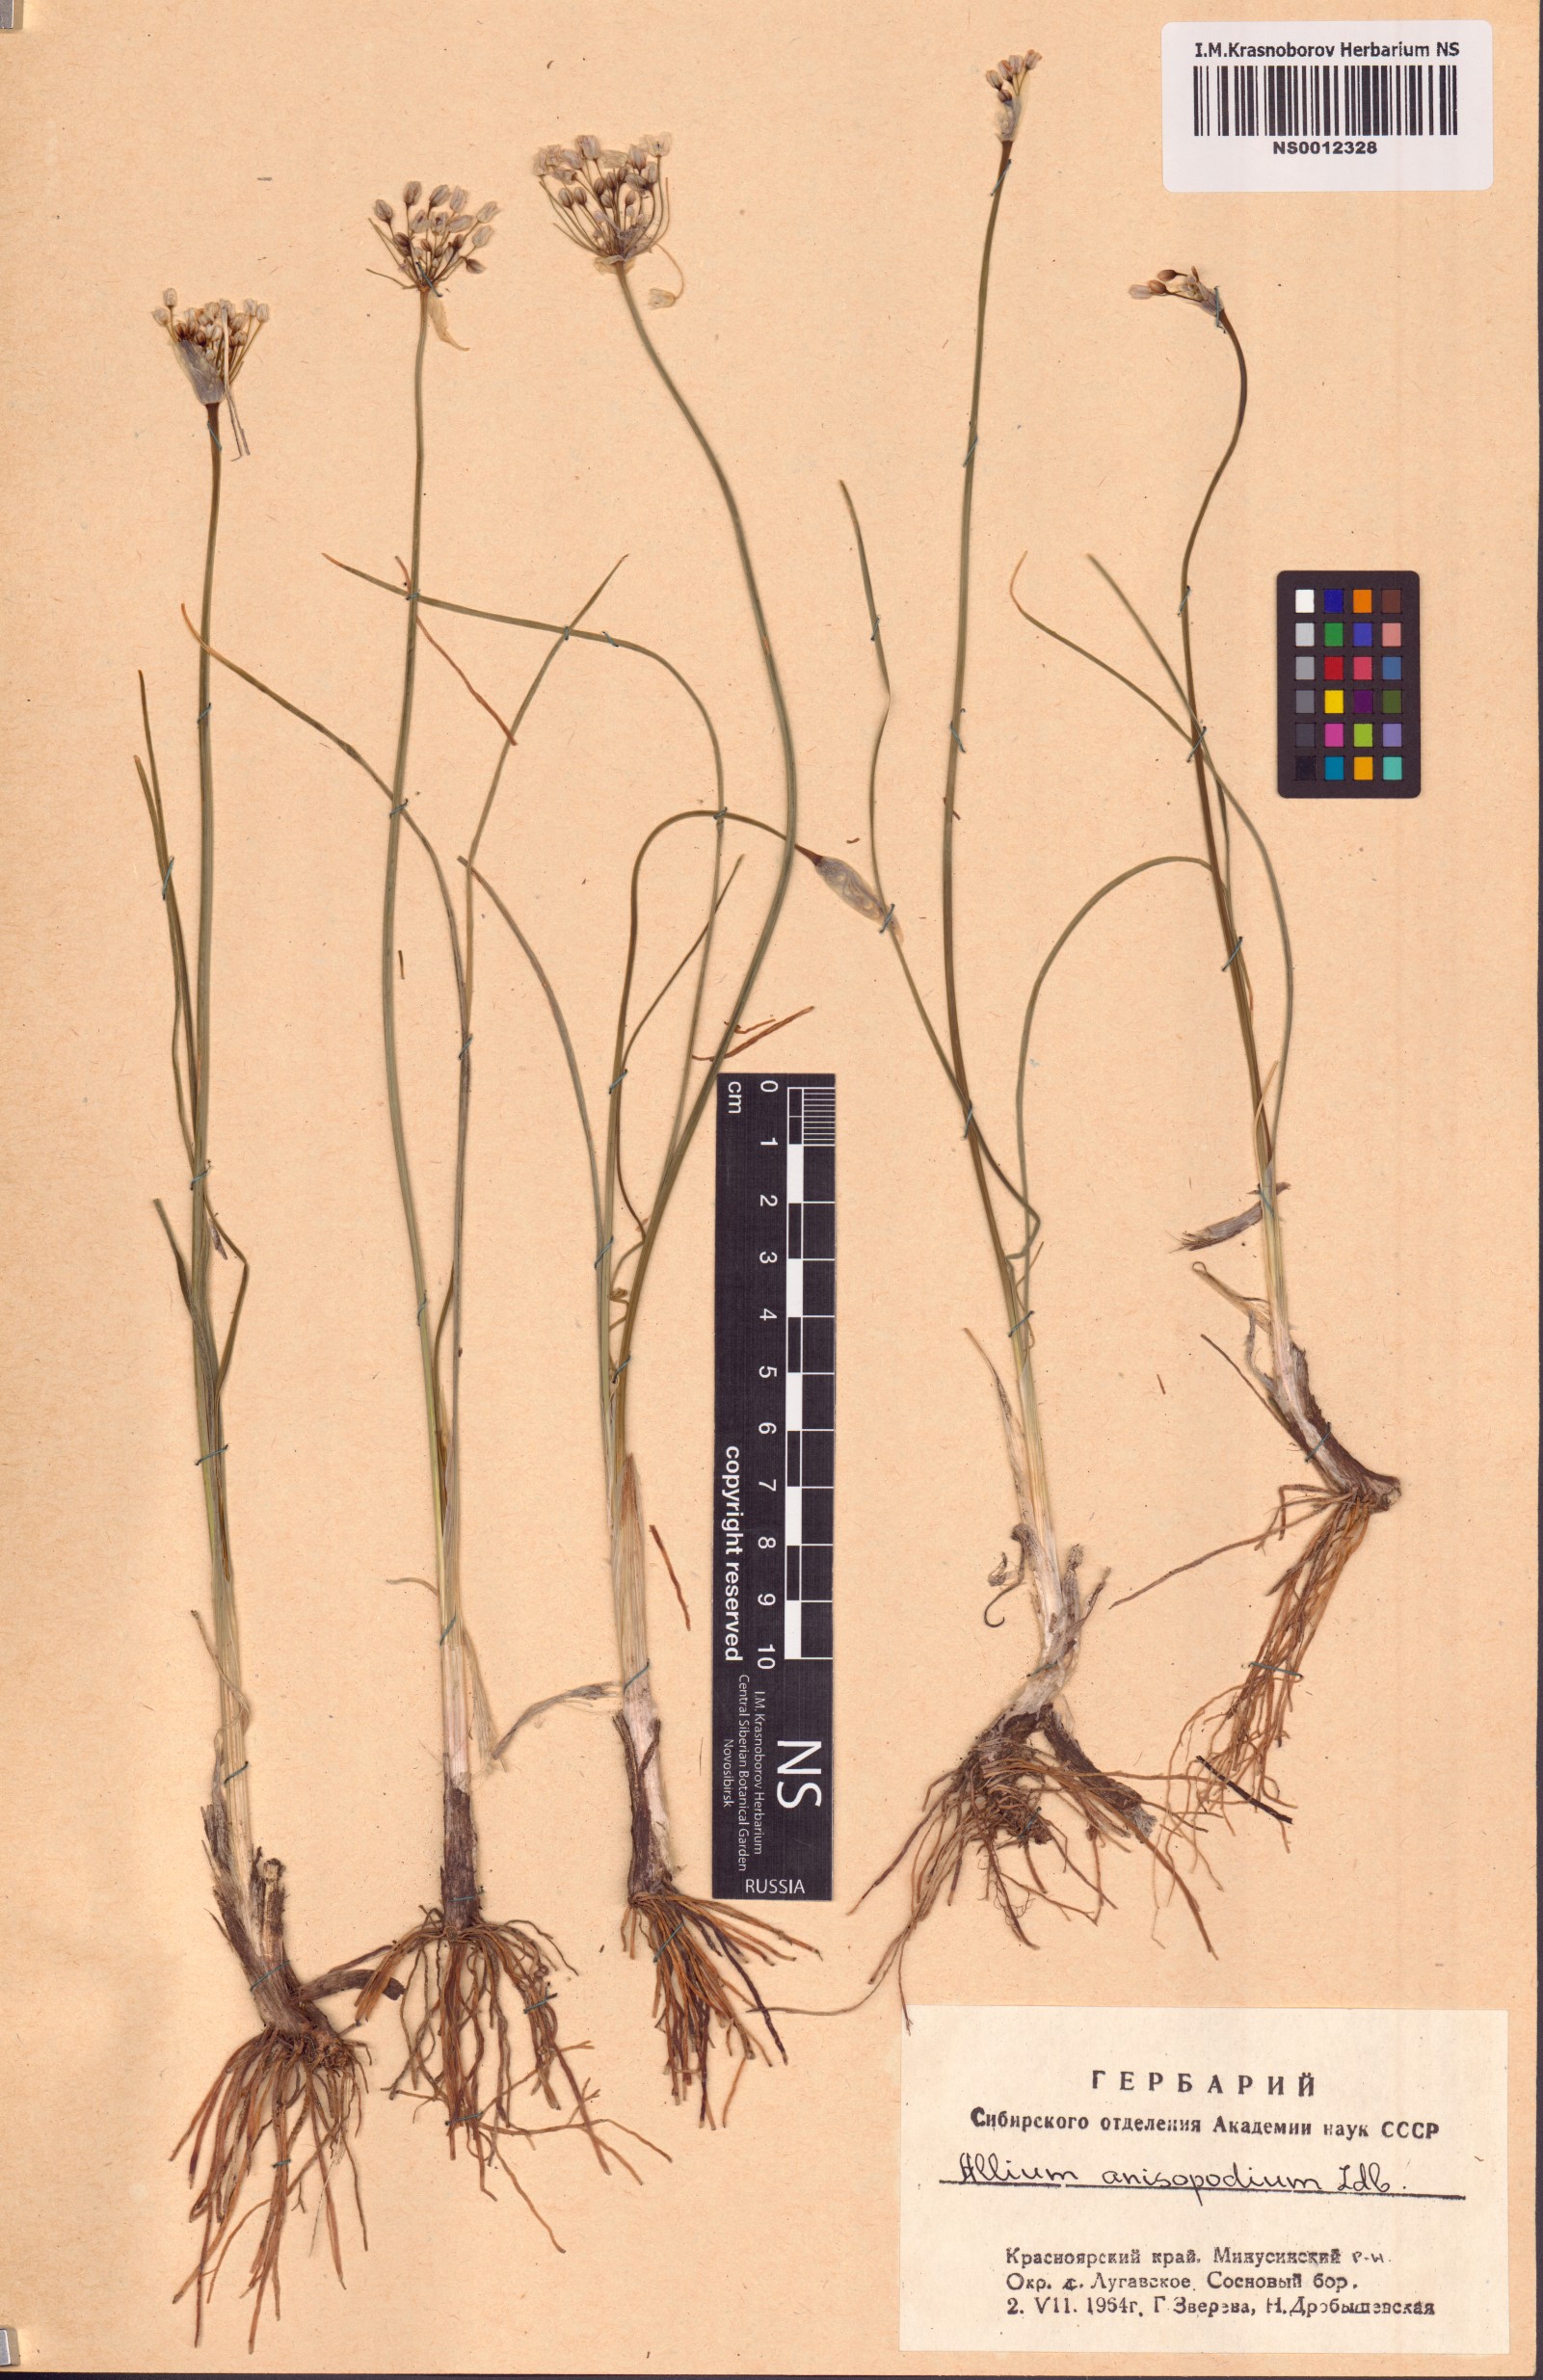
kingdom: Plantae
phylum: Tracheophyta
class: Liliopsida
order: Asparagales
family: Amaryllidaceae
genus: Allium
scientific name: Allium anisopodium
